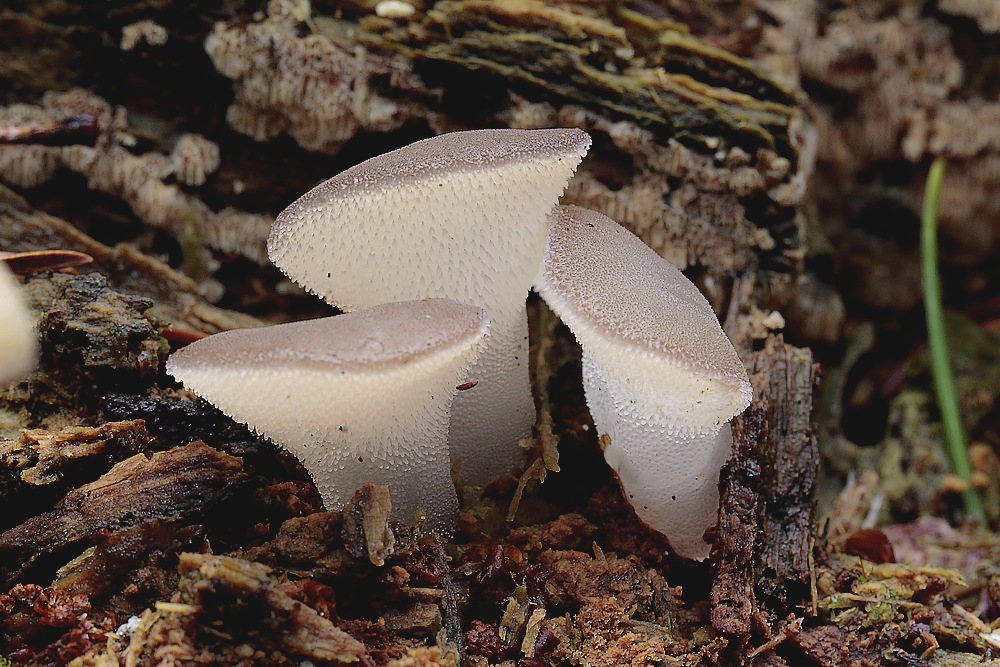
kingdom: Fungi
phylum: Basidiomycota
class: Agaricomycetes
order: Auriculariales
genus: Pseudohydnum
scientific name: Pseudohydnum gelatinosum
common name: bævretand
